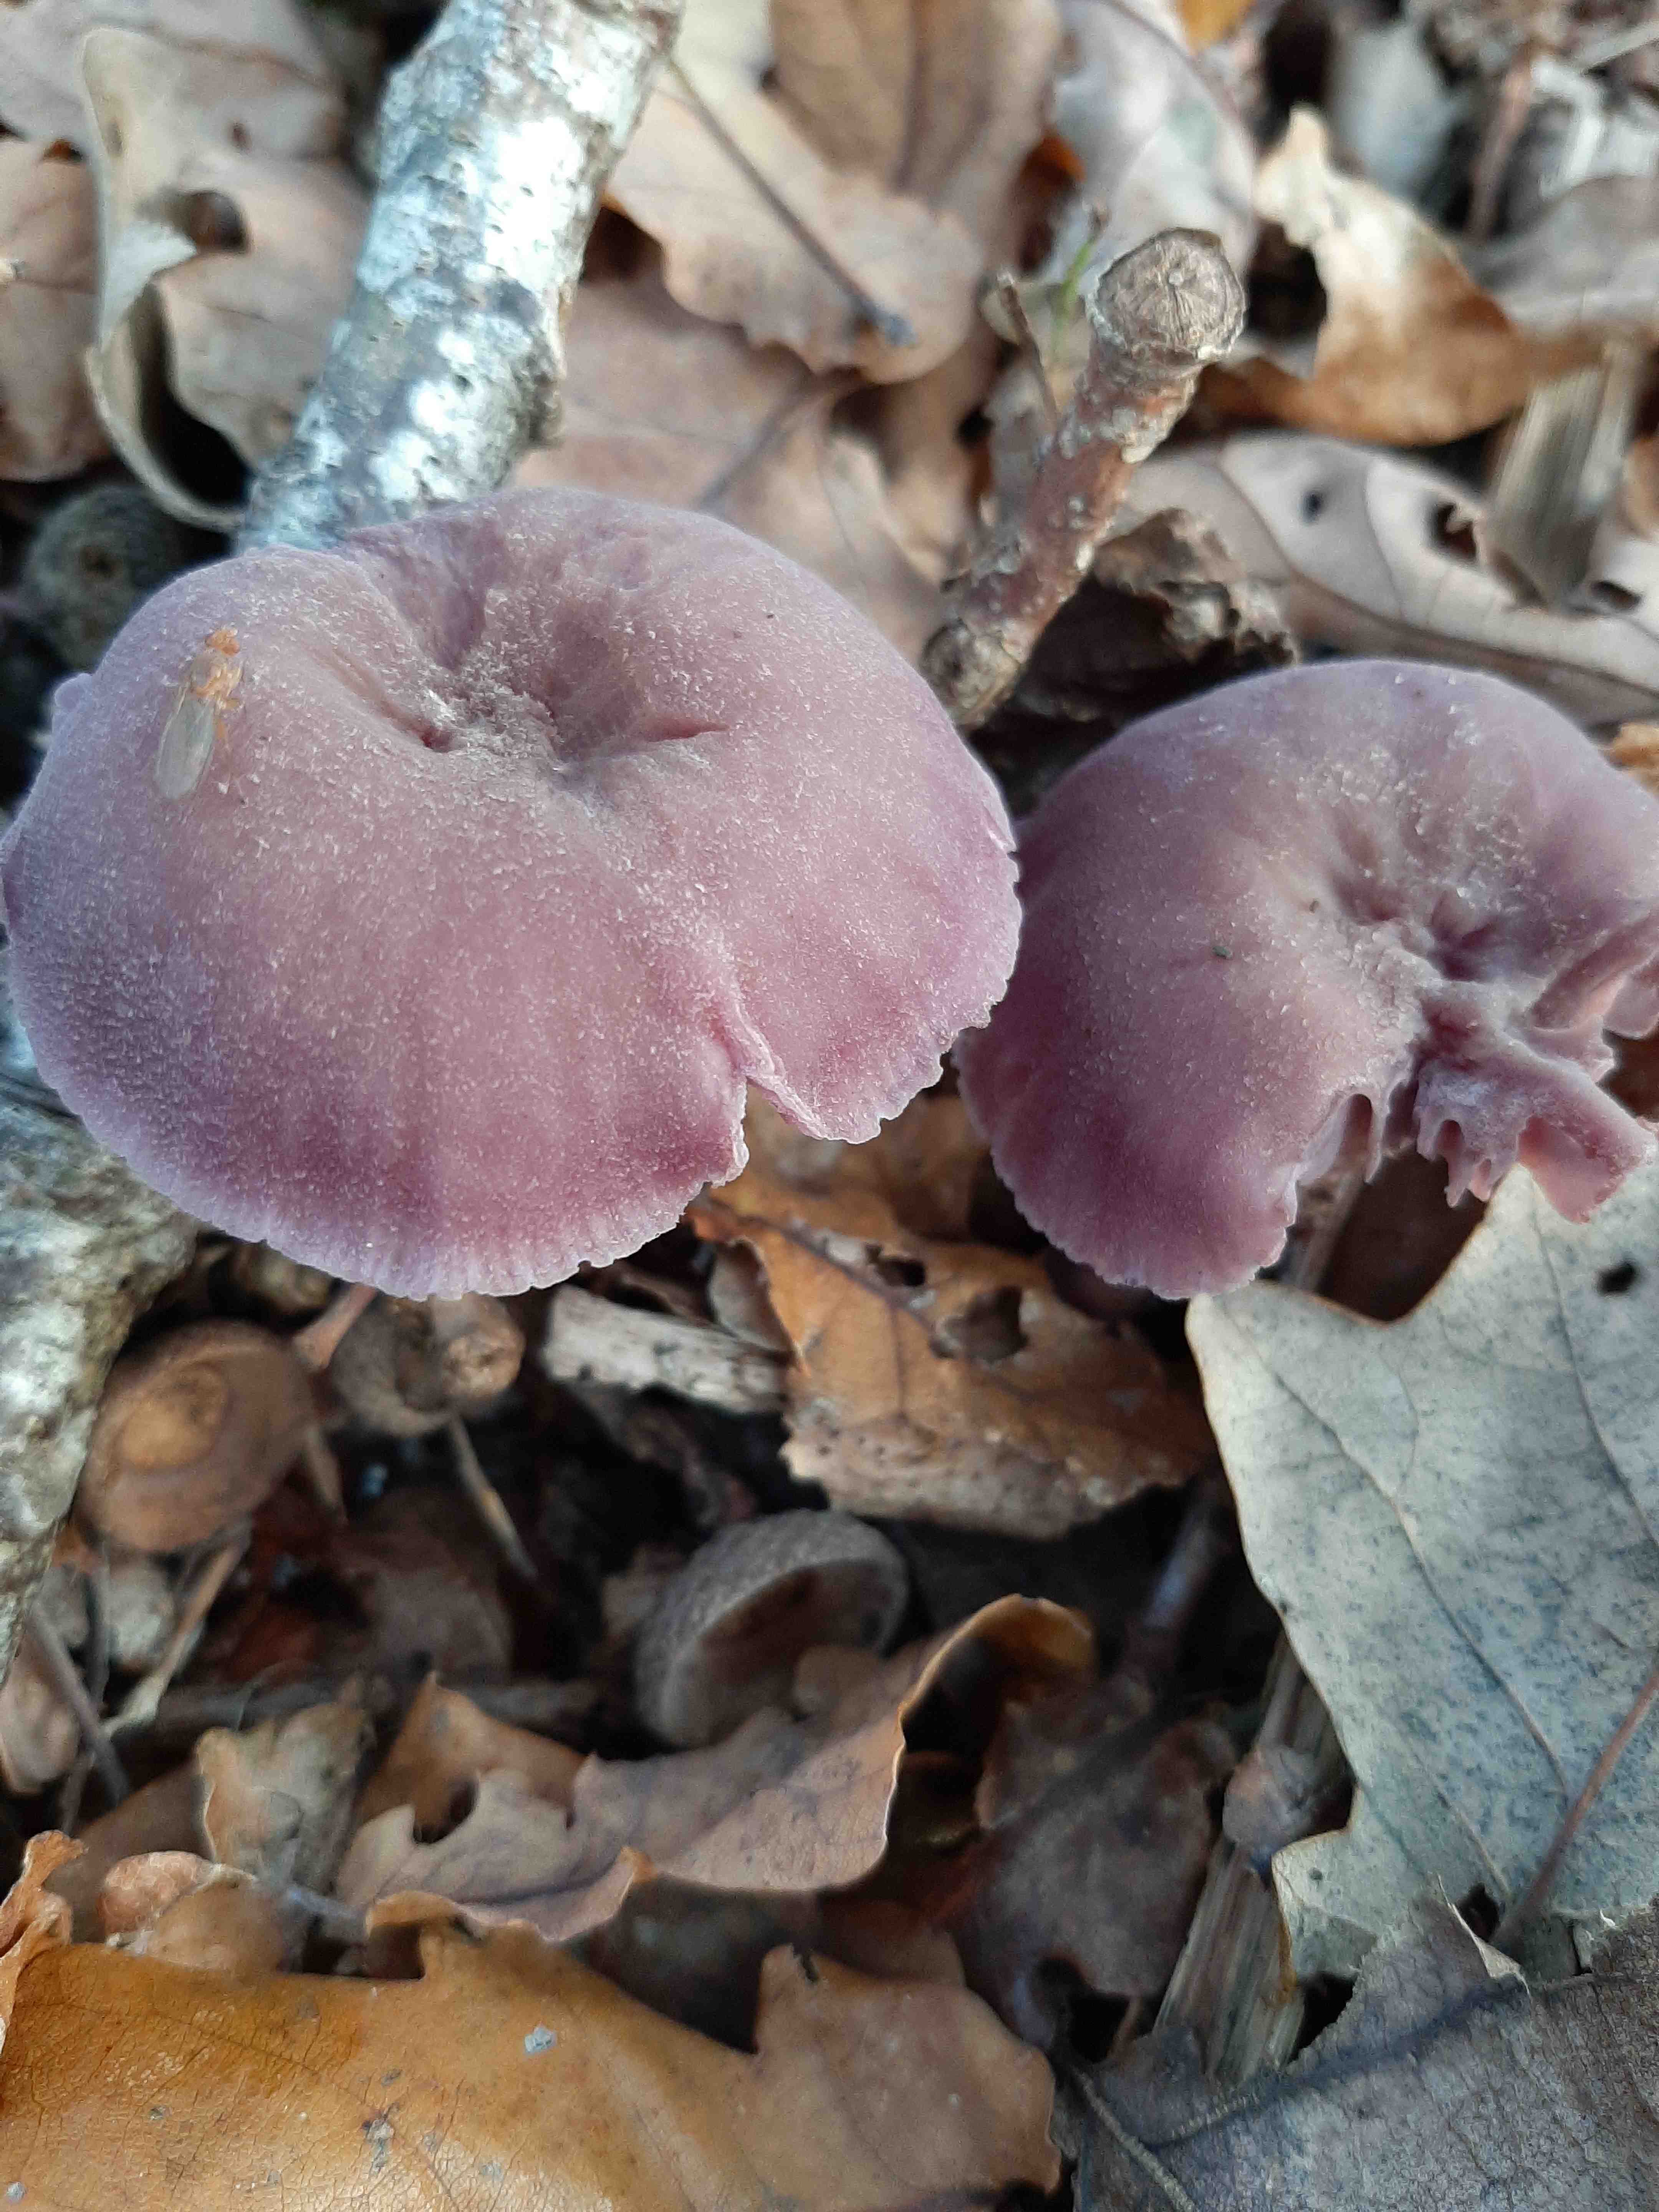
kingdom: Fungi
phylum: Basidiomycota
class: Agaricomycetes
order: Agaricales
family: Hydnangiaceae
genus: Laccaria
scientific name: Laccaria amethystina
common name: violet ametysthat
